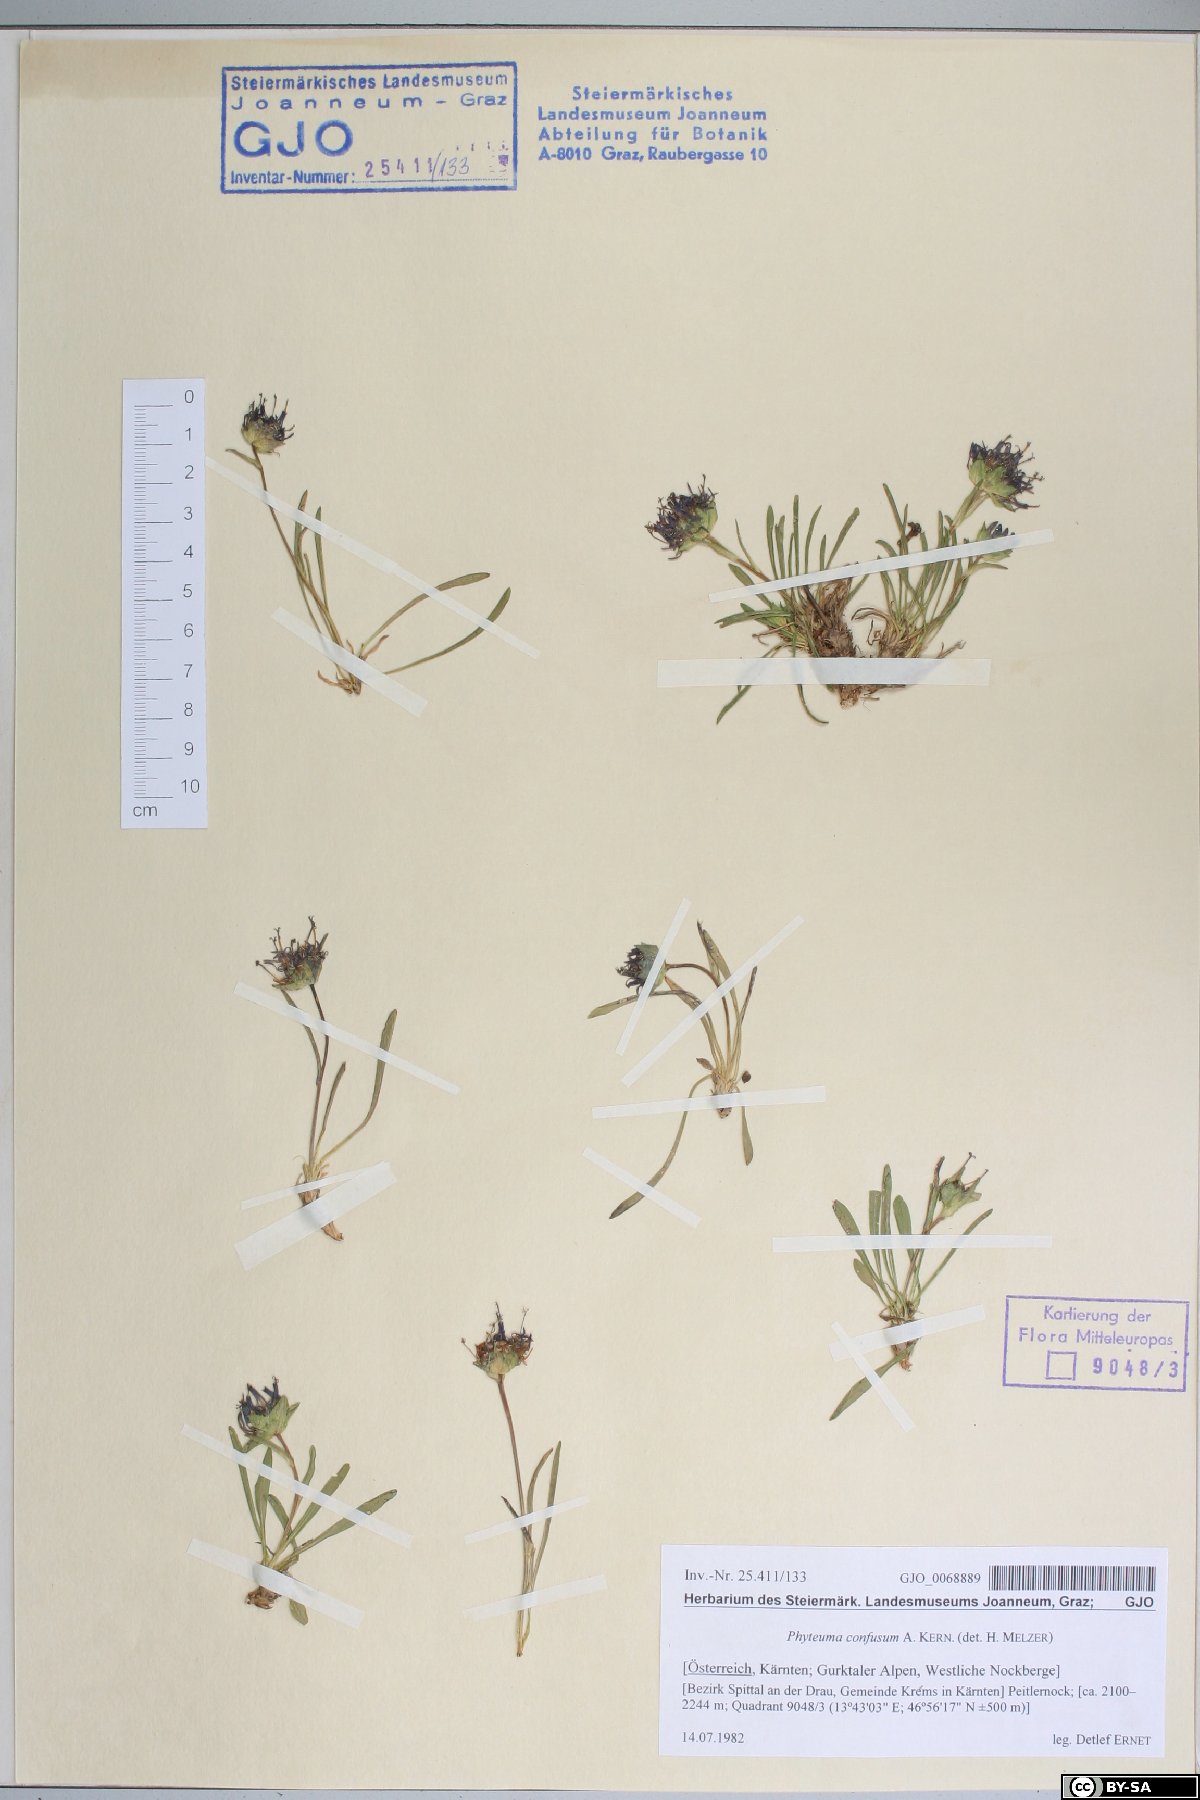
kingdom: Plantae
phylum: Tracheophyta
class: Magnoliopsida
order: Asterales
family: Campanulaceae
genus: Phyteuma
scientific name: Phyteuma confusum
